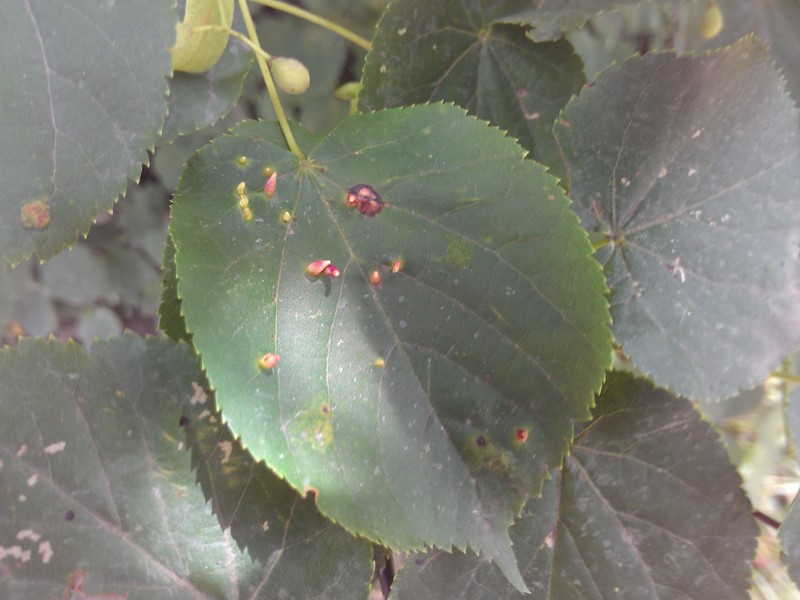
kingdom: Animalia
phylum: Arthropoda
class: Arachnida
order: Trombidiformes
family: Eriophyidae
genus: Eriophyes
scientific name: Eriophyes lateannulatus
